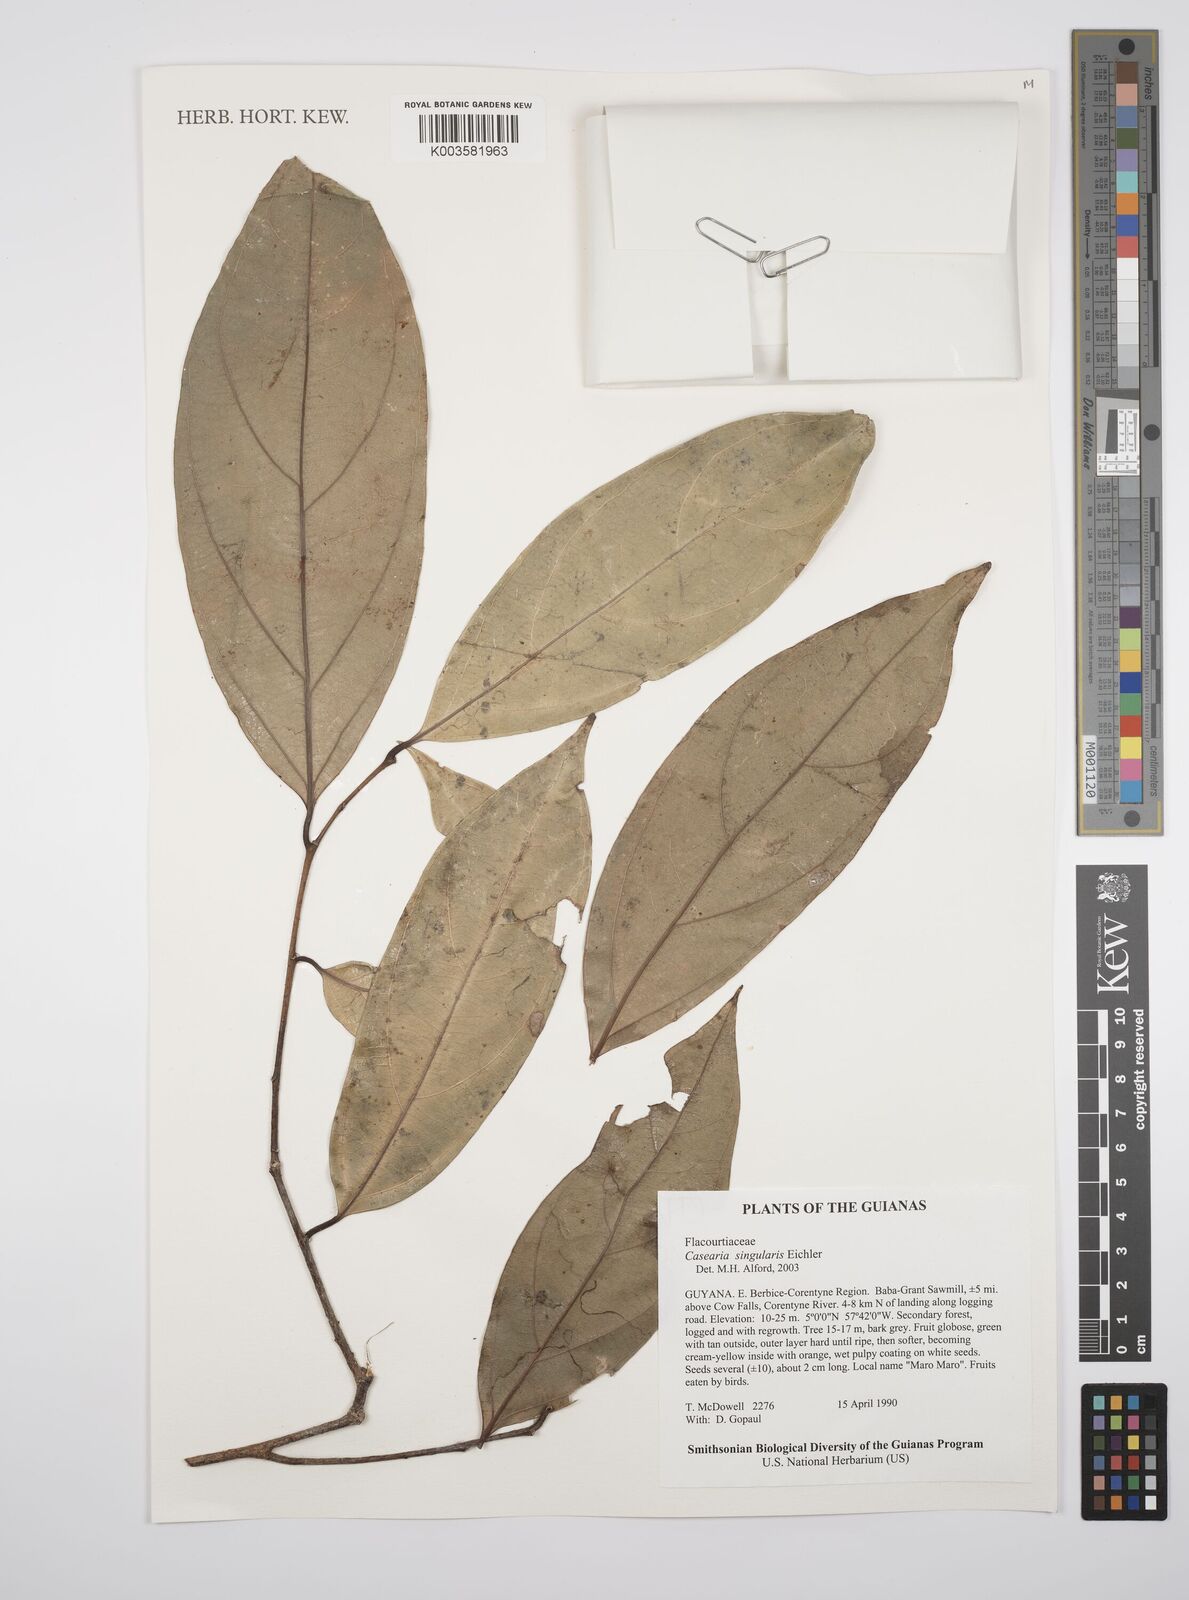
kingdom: Plantae
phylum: Tracheophyta
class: Magnoliopsida
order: Malpighiales
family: Salicaceae
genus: Casearia
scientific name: Casearia combaymensis
